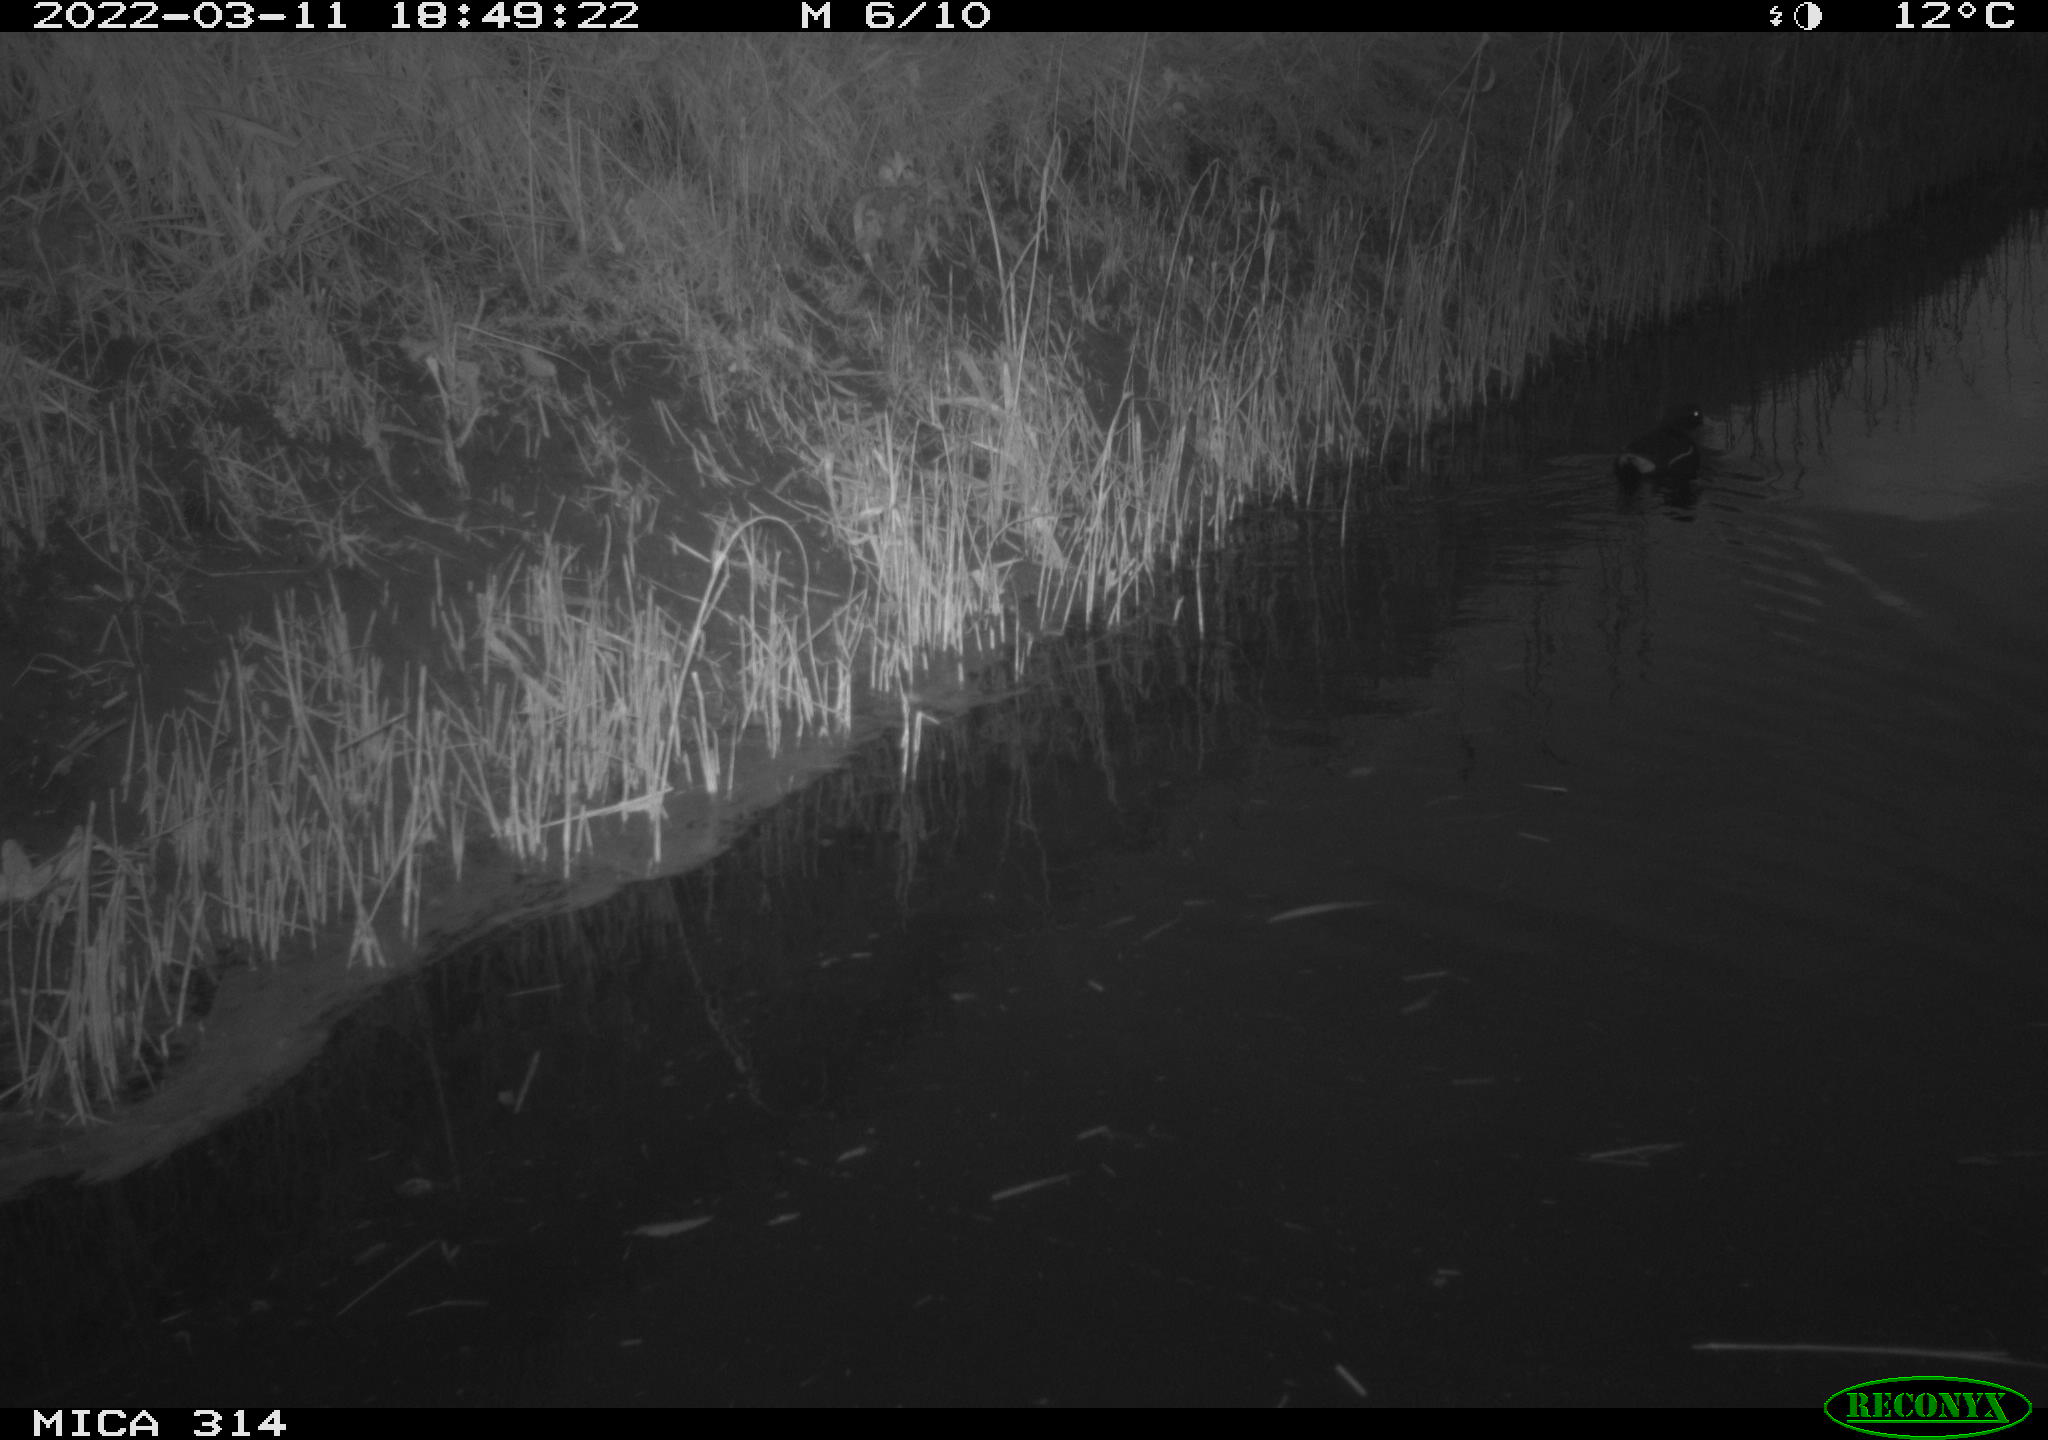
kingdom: Animalia
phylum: Chordata
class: Aves
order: Gruiformes
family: Rallidae
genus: Gallinula
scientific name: Gallinula chloropus
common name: Common moorhen
